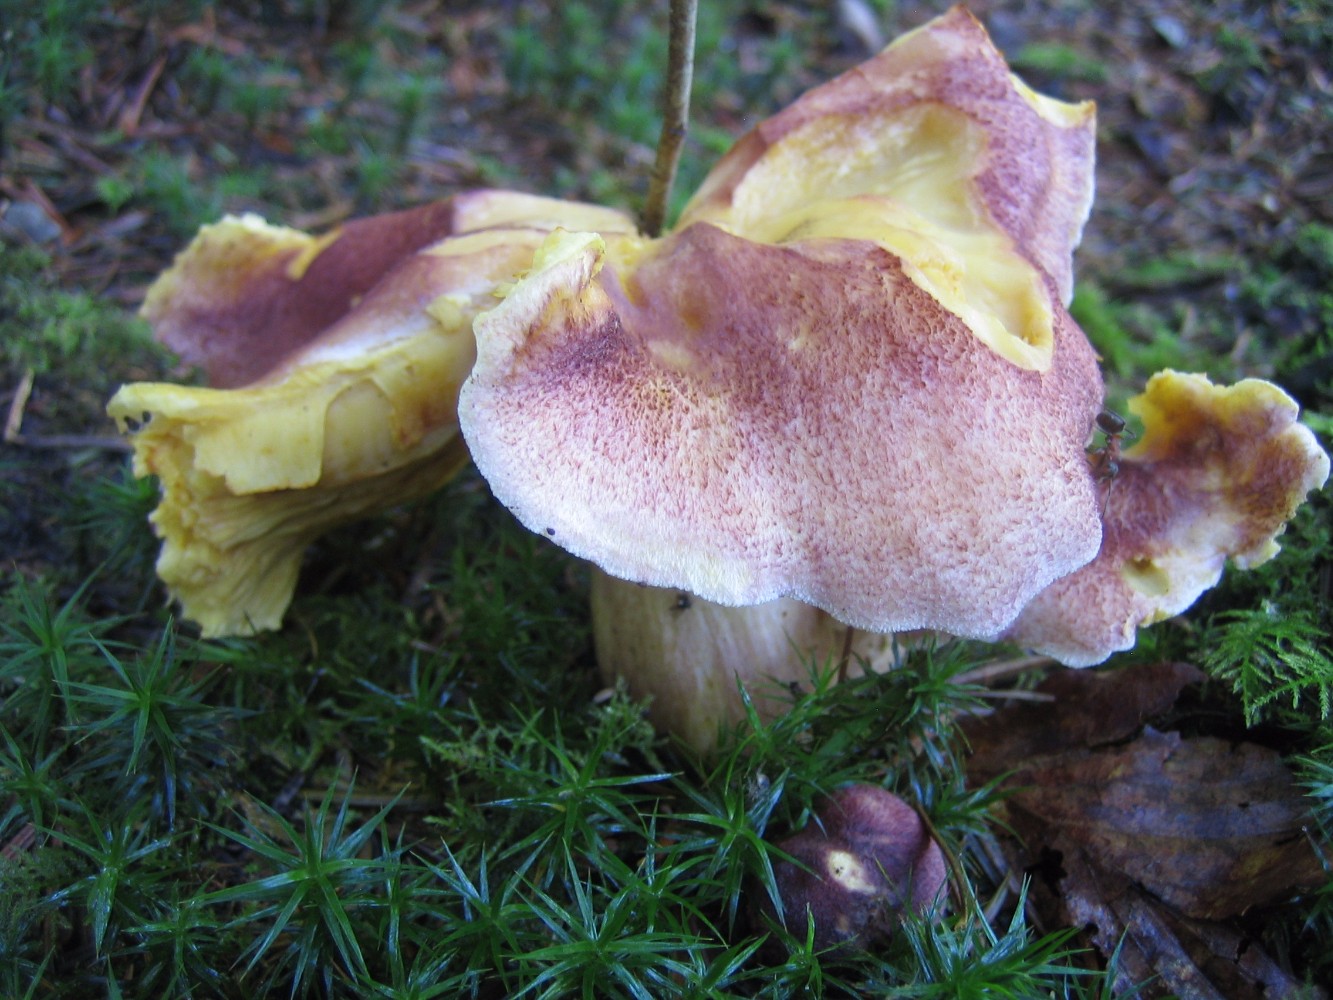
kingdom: Fungi
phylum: Basidiomycota
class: Agaricomycetes
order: Agaricales
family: Tricholomataceae
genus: Tricholomopsis
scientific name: Tricholomopsis rutilans
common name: purpur-væbnerhat
